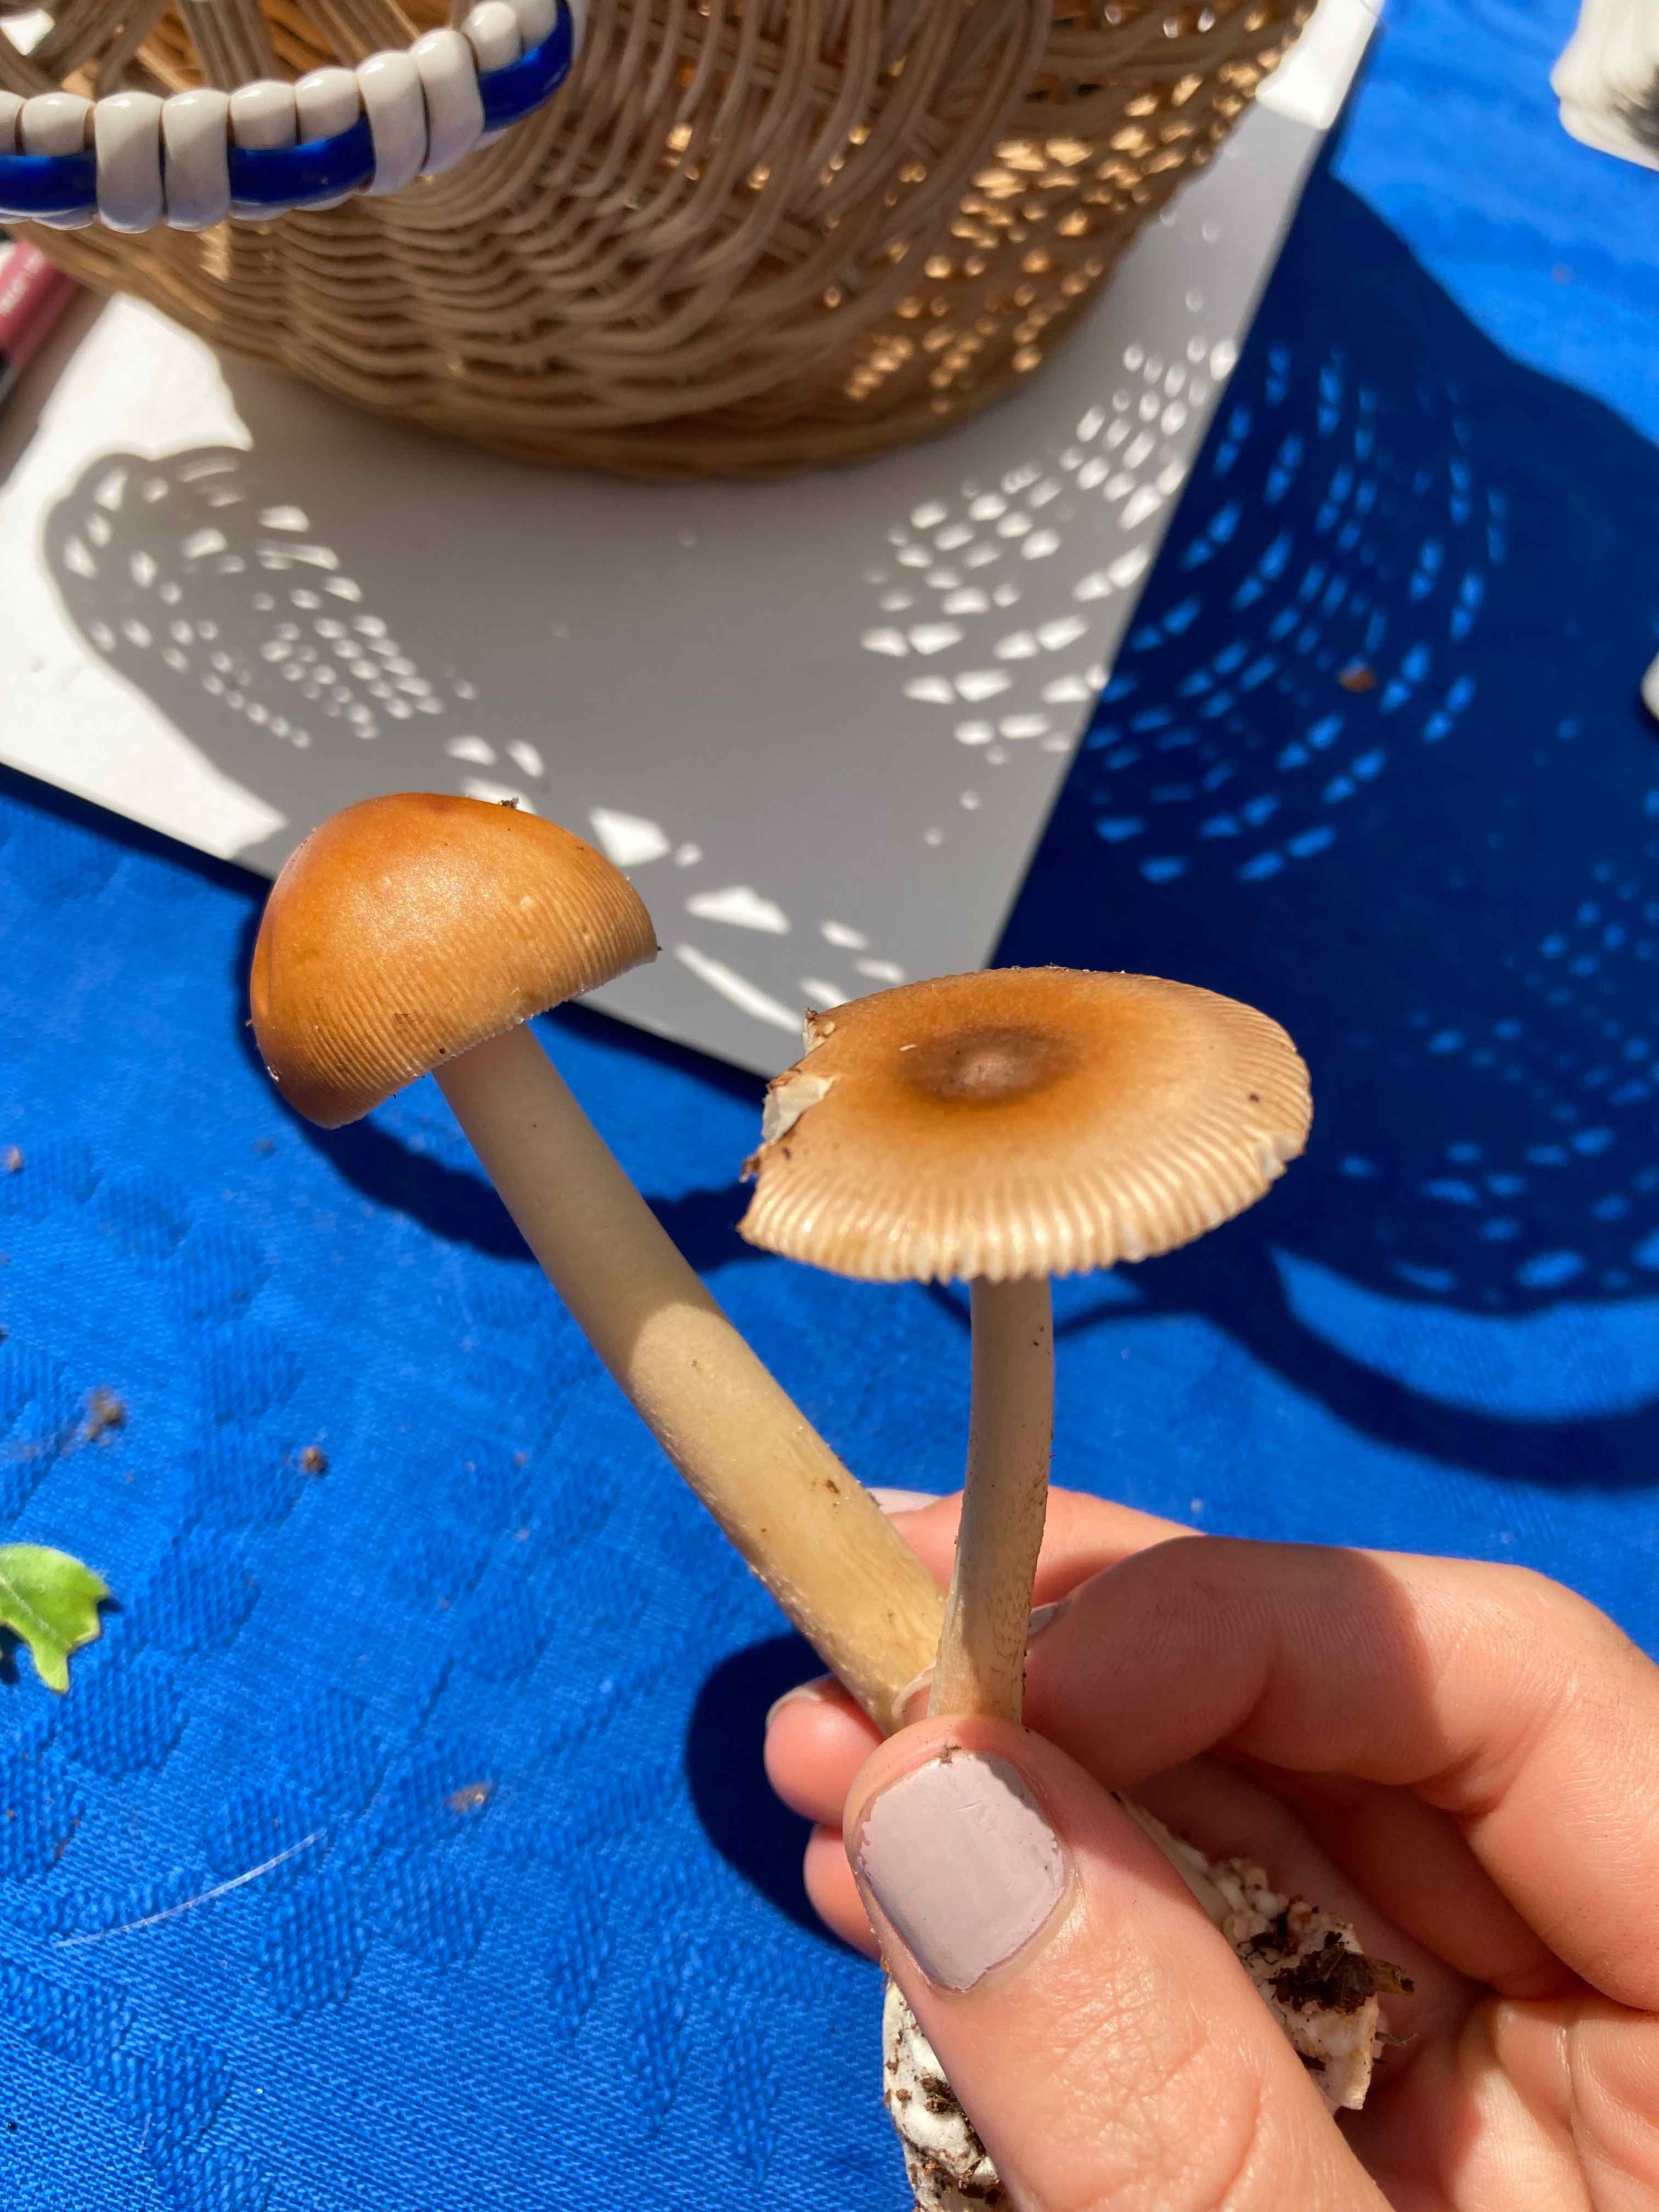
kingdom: Fungi
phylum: Basidiomycota
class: Agaricomycetes
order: Agaricales
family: Amanitaceae
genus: Amanita
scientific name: Amanita fulva
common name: brun kam-fluesvamp
